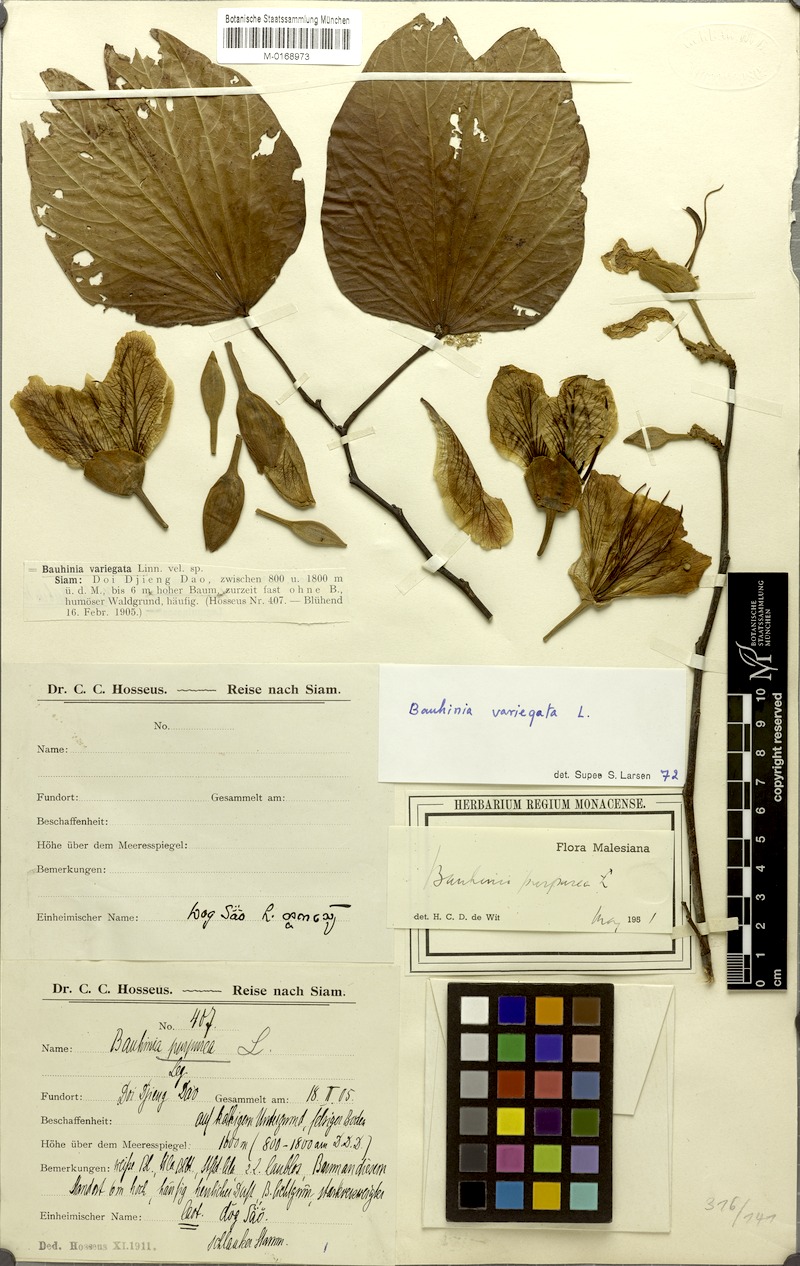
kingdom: Plantae
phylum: Tracheophyta
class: Magnoliopsida
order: Fabales
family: Fabaceae
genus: Bauhinia
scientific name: Bauhinia variegata
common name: Mountain ebony
